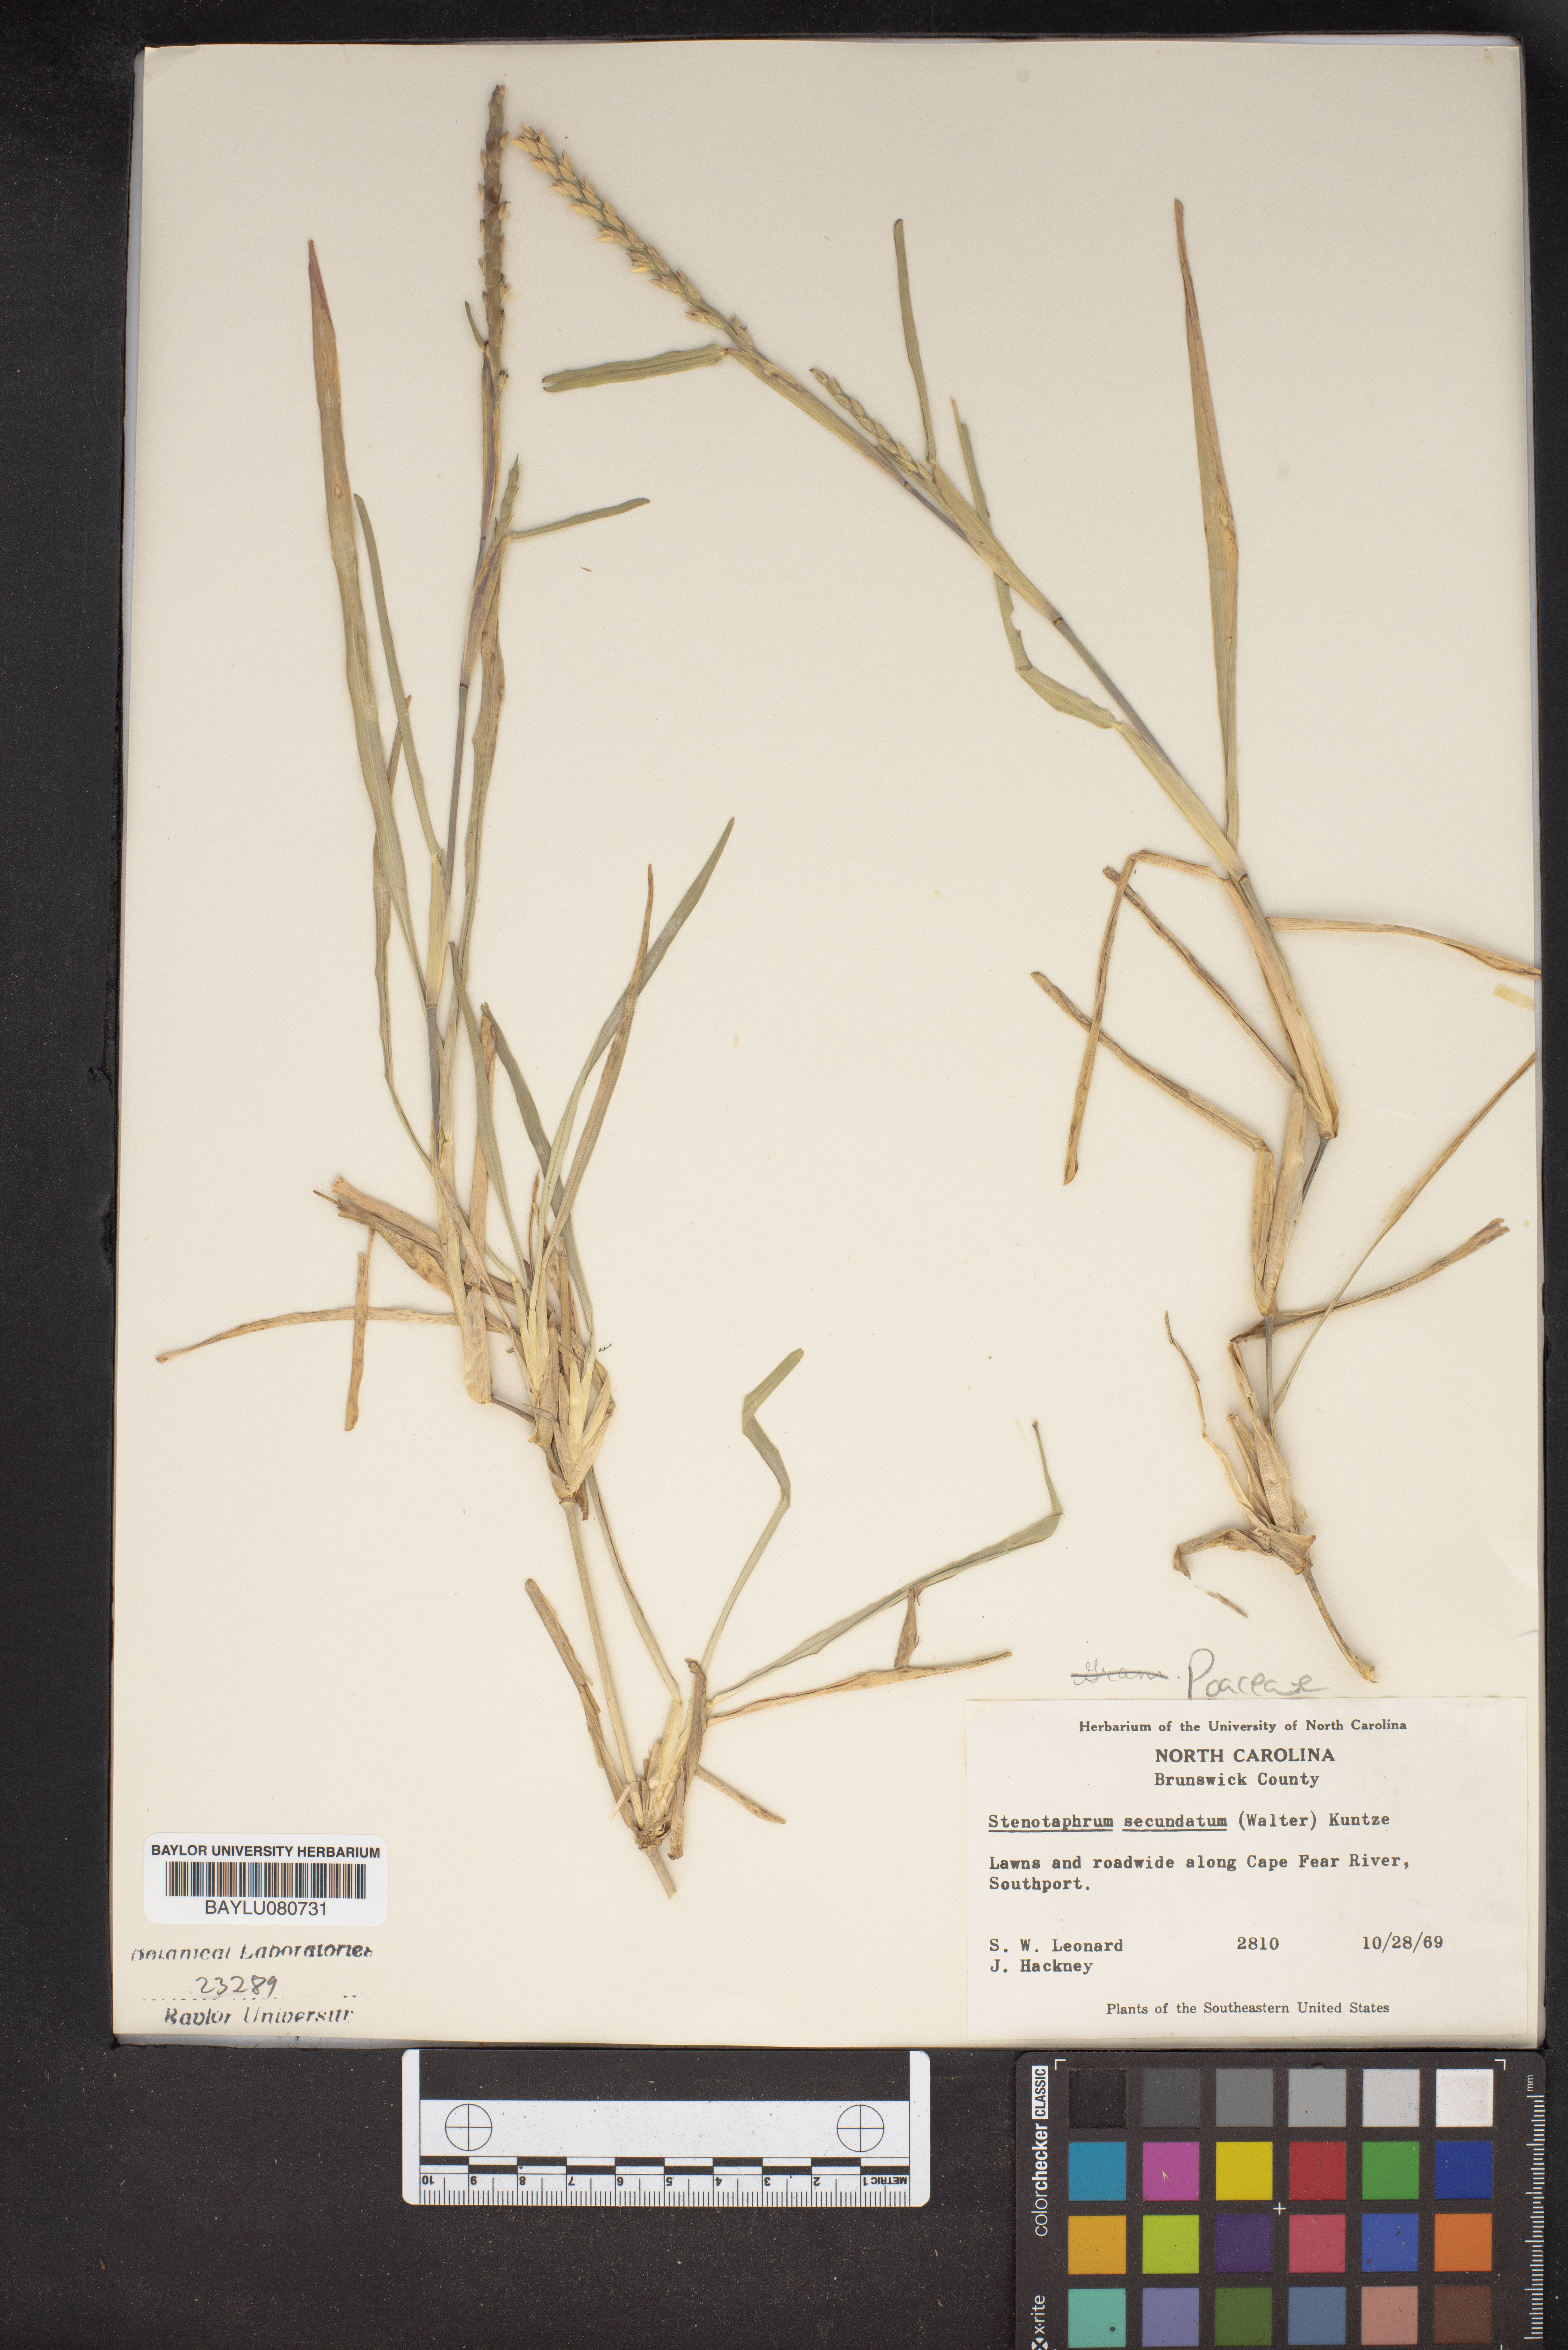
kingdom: Plantae
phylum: Tracheophyta
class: Liliopsida
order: Poales
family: Poaceae
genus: Stenotaphrum
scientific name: Stenotaphrum secundatum
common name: St. augustine grass
